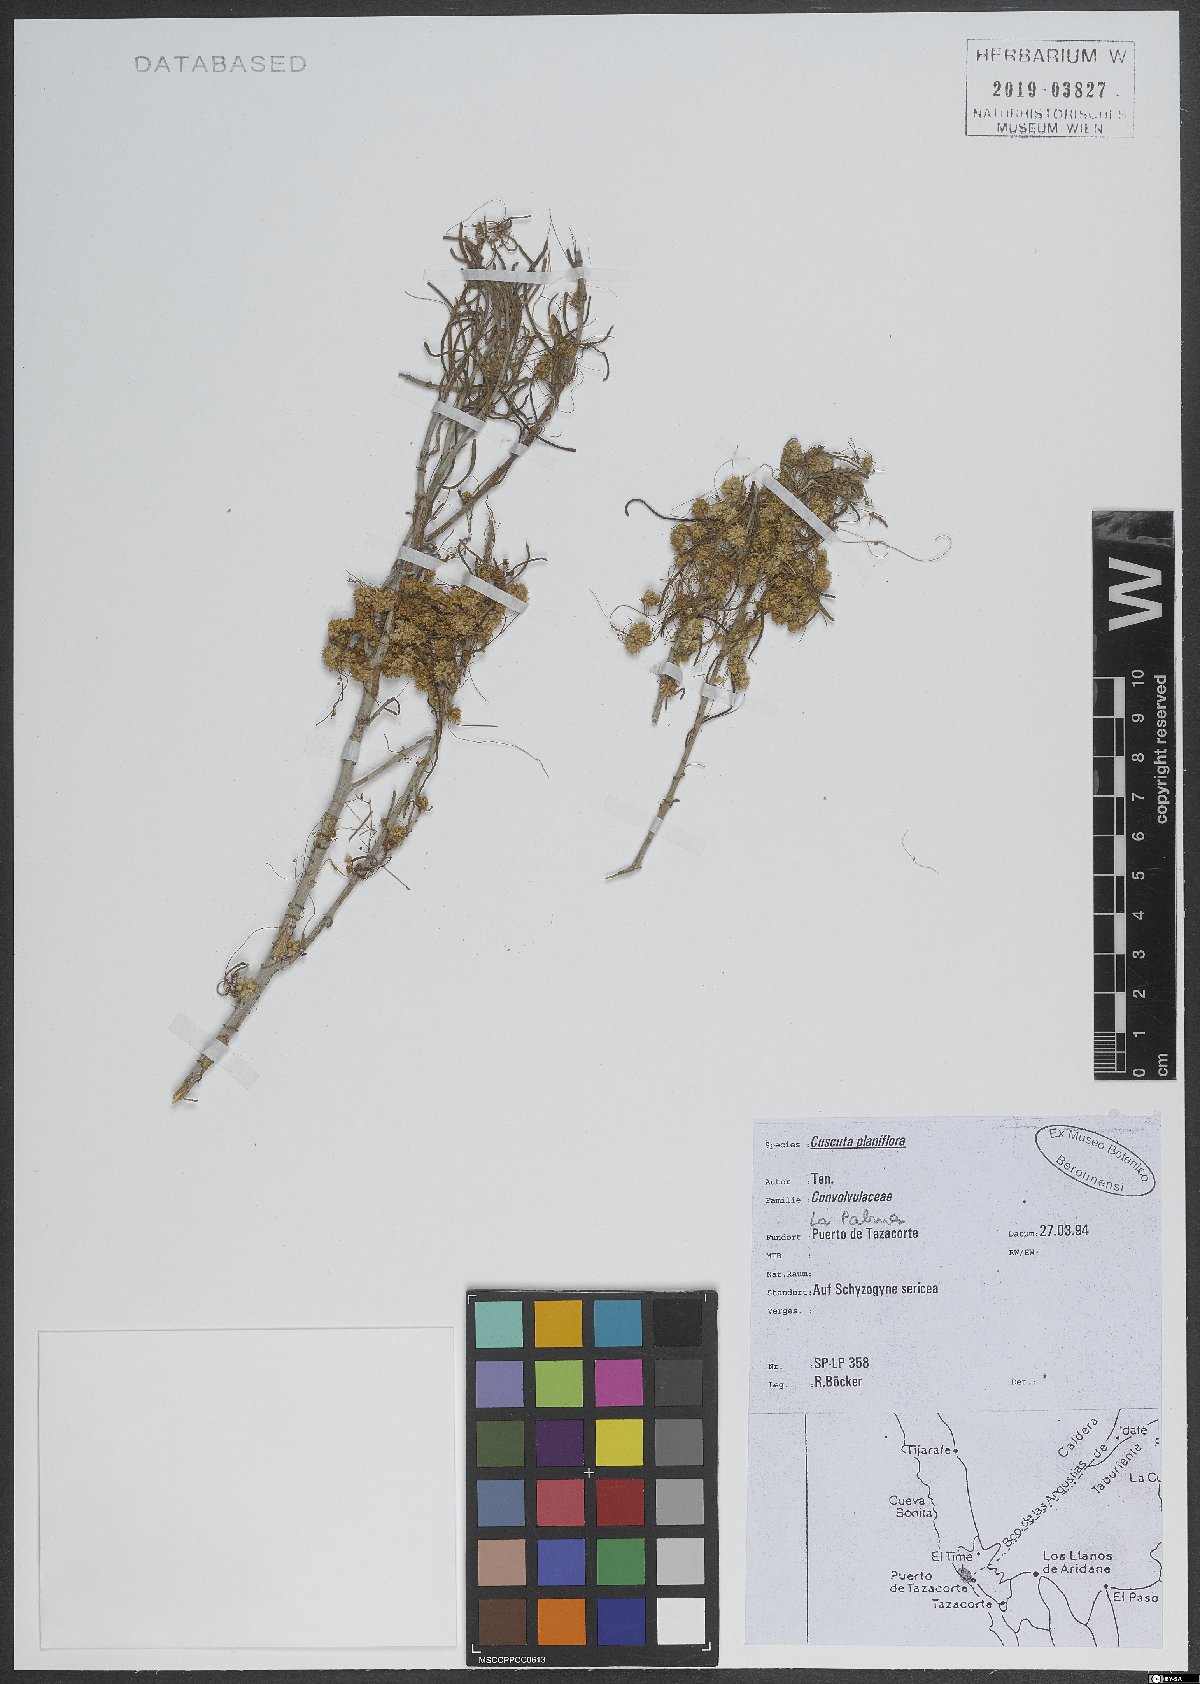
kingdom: Plantae
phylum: Tracheophyta
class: Magnoliopsida
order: Solanales
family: Convolvulaceae
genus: Cuscuta
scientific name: Cuscuta planiflora
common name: Small-seed alfalfa dodder
